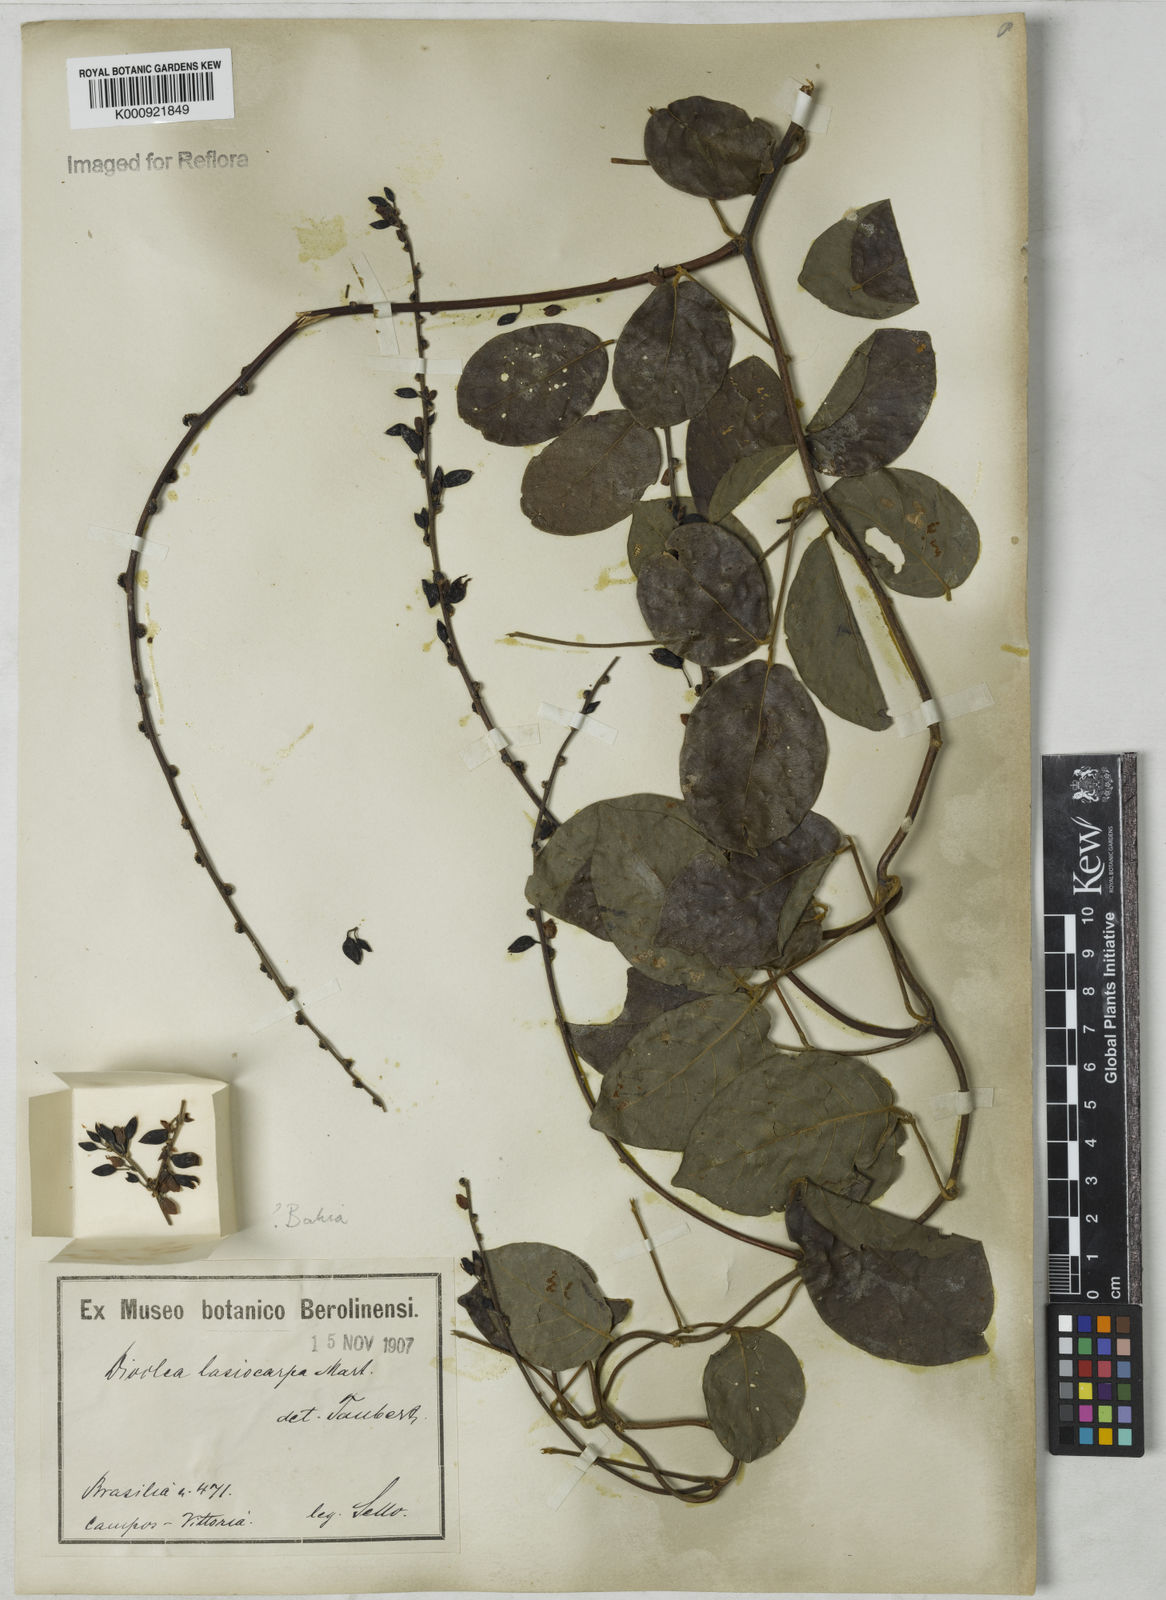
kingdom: Plantae
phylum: Tracheophyta
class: Magnoliopsida
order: Fabales
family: Fabaceae
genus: Dioclea
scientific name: Dioclea virgata
